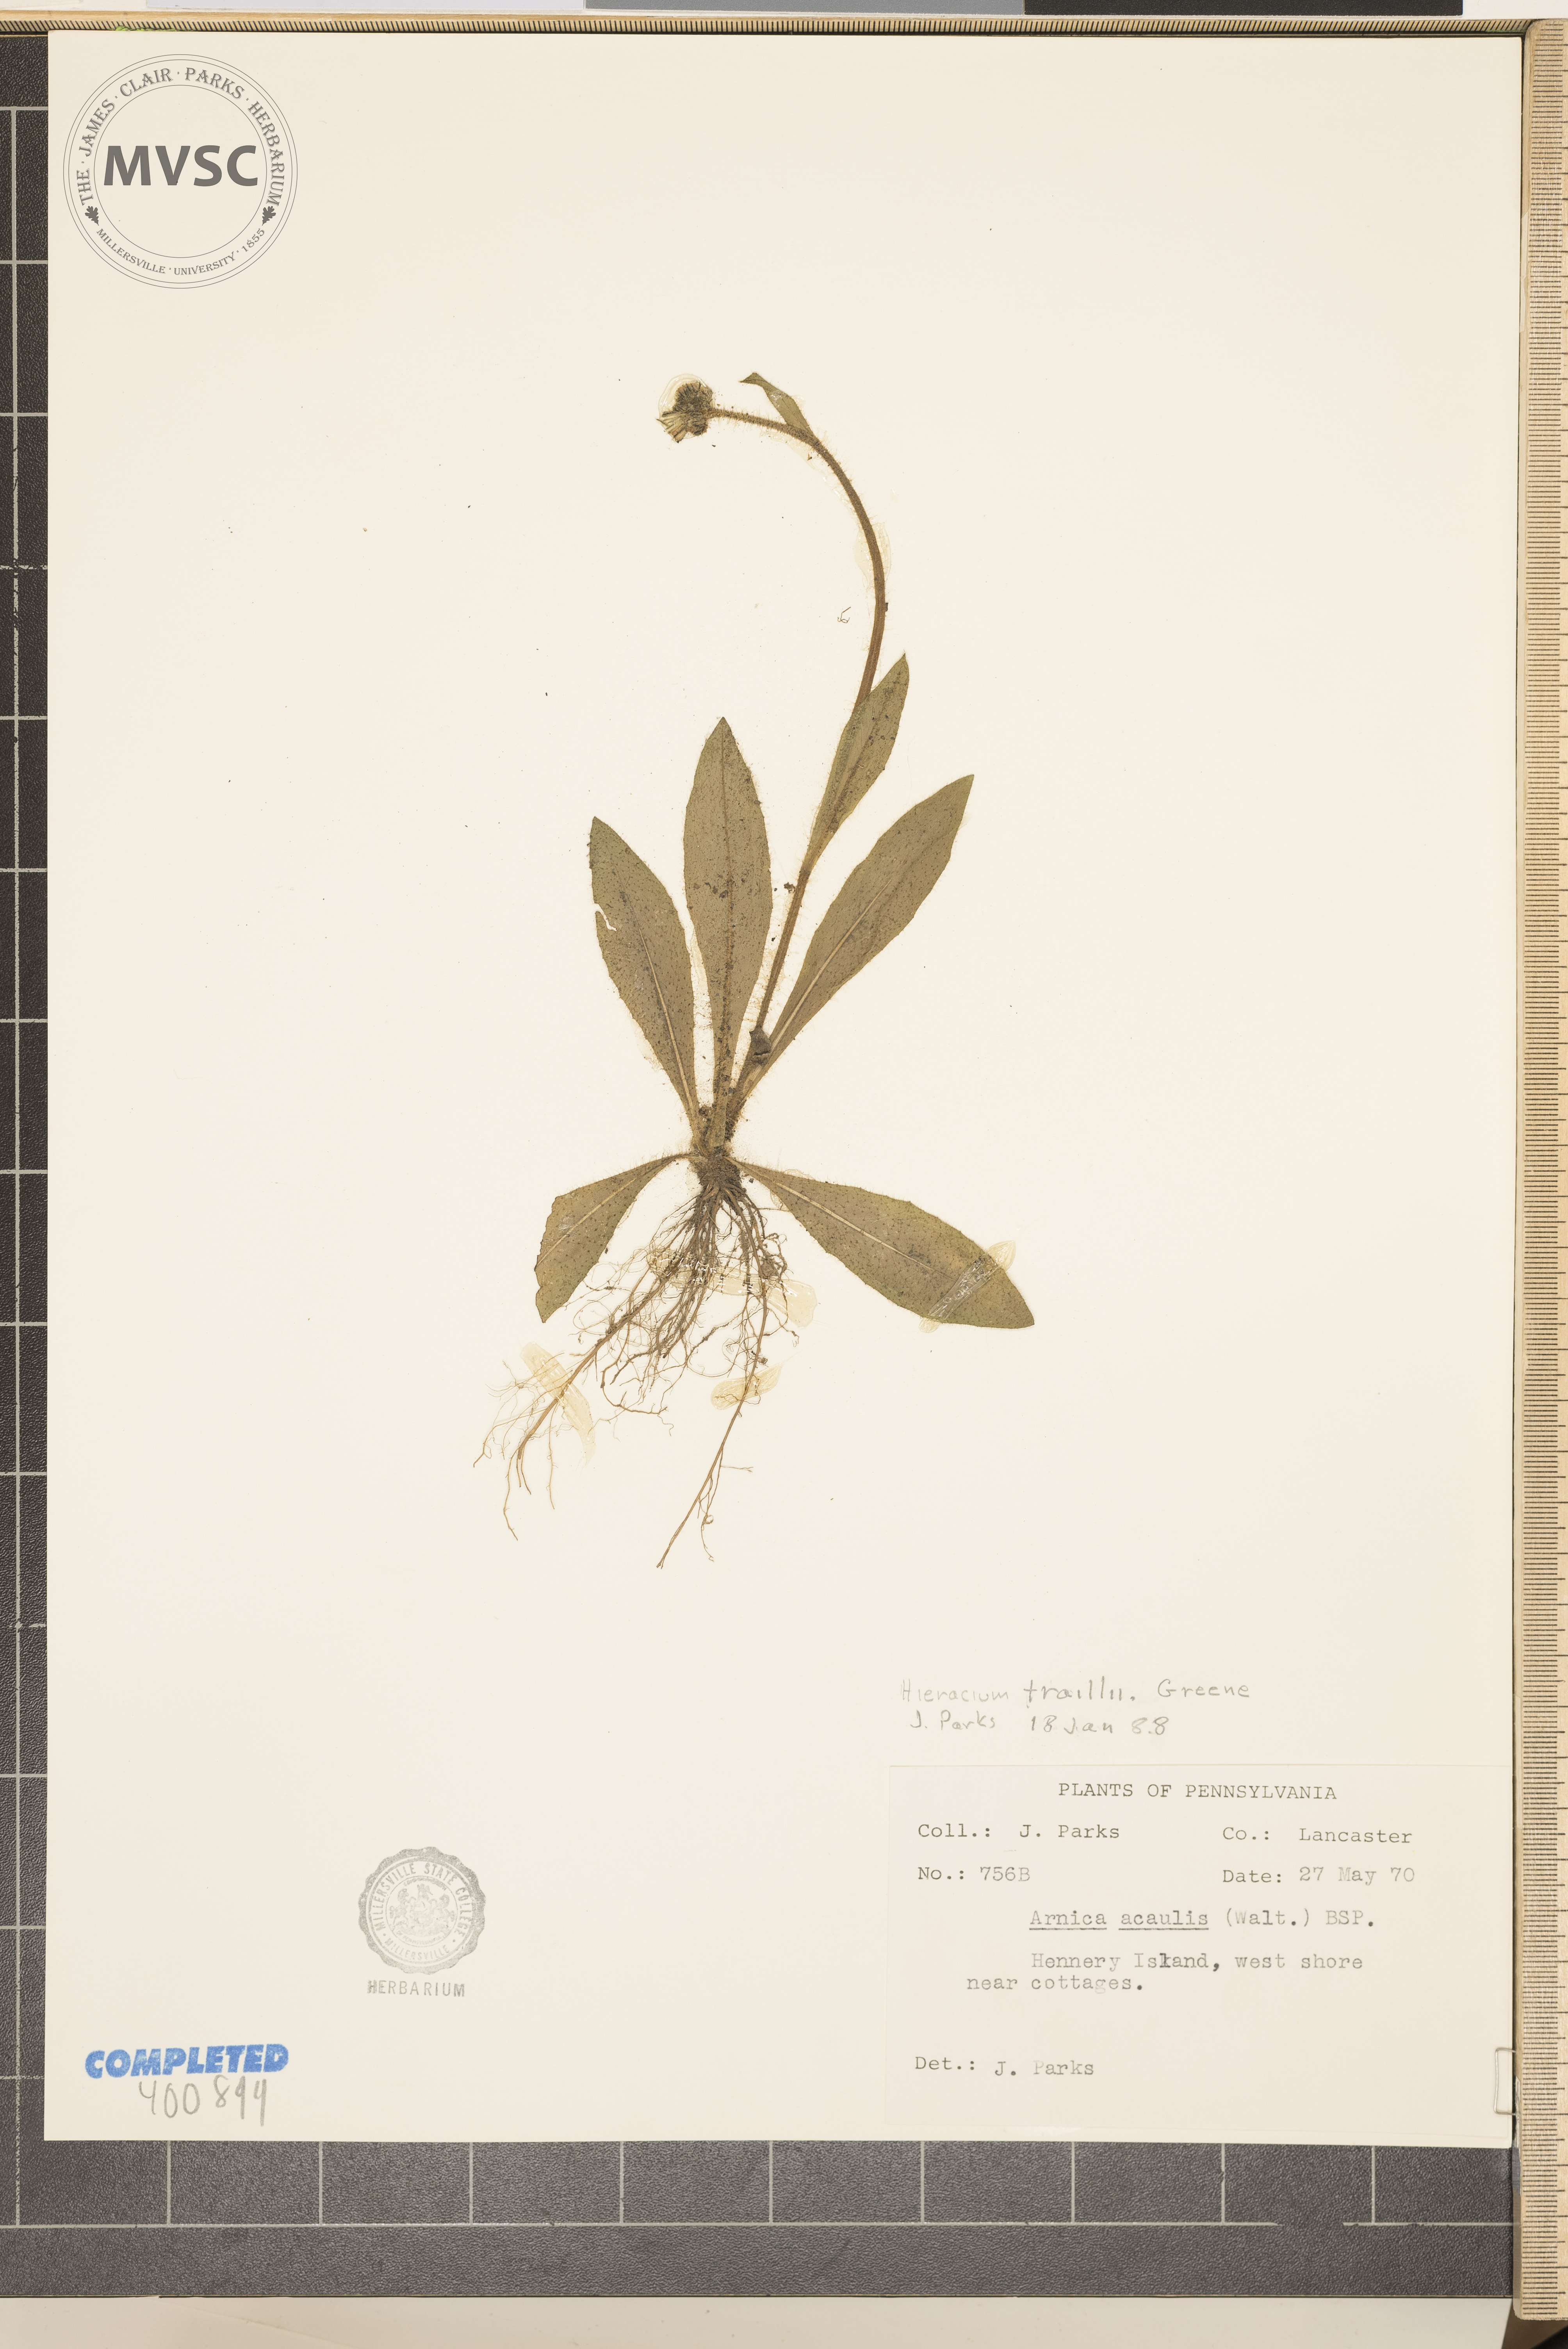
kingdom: Plantae
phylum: Tracheophyta
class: Magnoliopsida
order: Asterales
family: Asteraceae
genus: Pilosella
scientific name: Pilosella caespitosa
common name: Yellow fox-and-cubs
